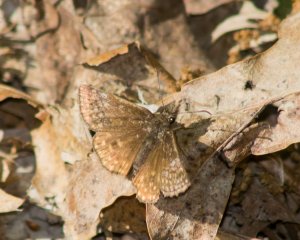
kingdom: Animalia
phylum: Arthropoda
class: Insecta
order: Lepidoptera
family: Hesperiidae
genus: Erynnis
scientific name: Erynnis icelus
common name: Dreamy Duskywing
